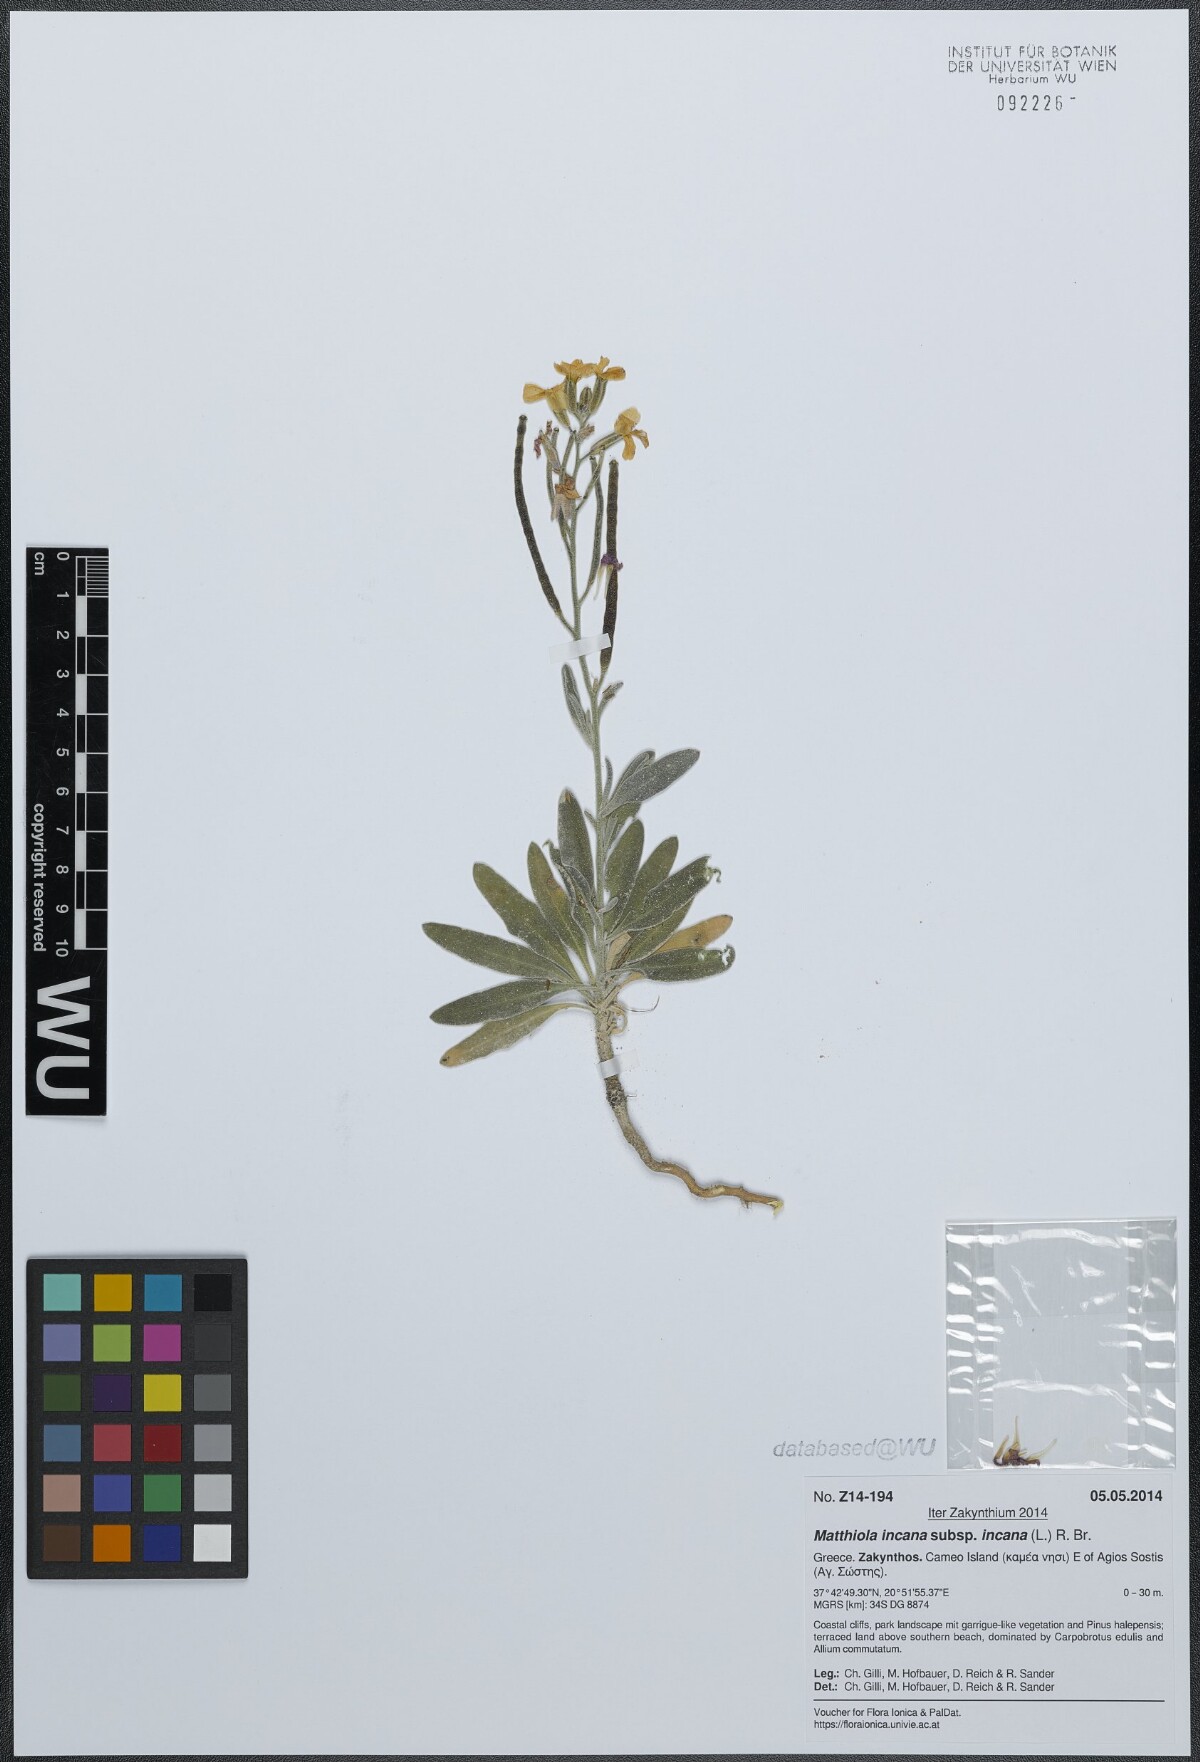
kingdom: Plantae
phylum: Tracheophyta
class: Magnoliopsida
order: Brassicales
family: Brassicaceae
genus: Matthiola
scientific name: Matthiola incana
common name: Hoary stock
